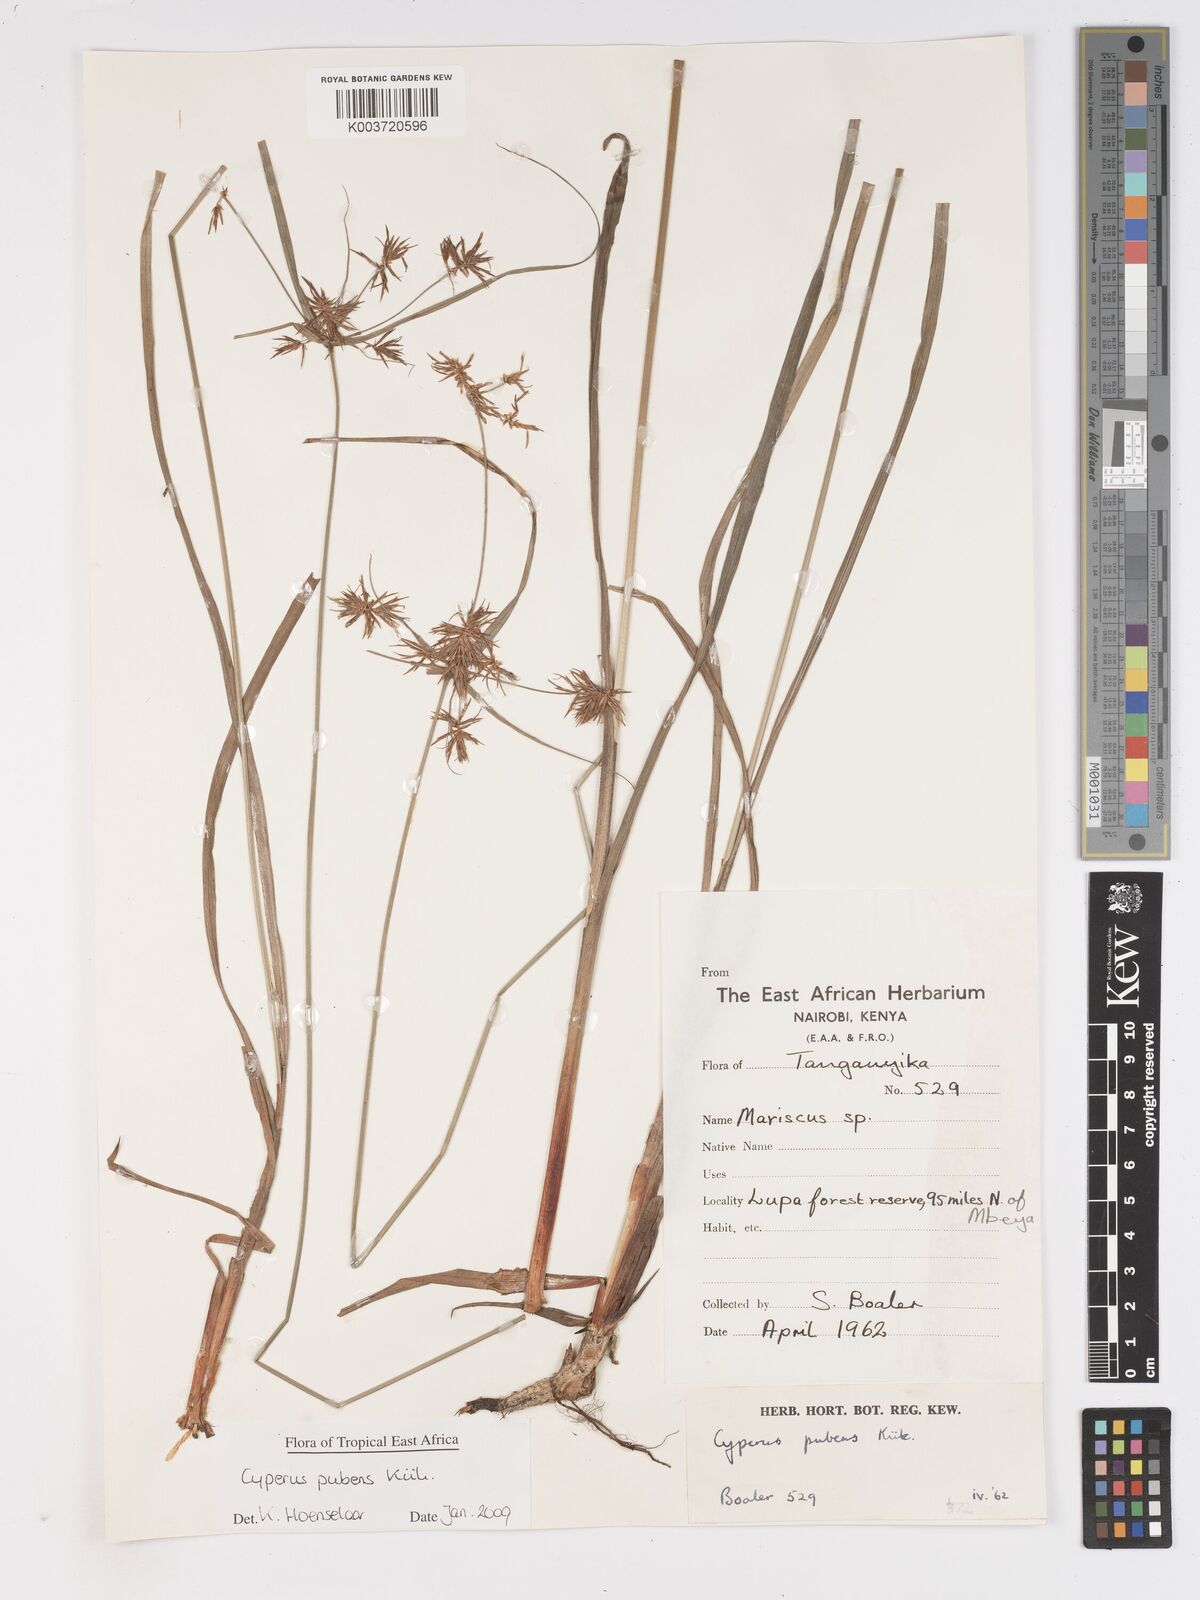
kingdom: Plantae
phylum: Tracheophyta
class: Liliopsida
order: Poales
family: Cyperaceae
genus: Cyperus
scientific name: Cyperus pubens
